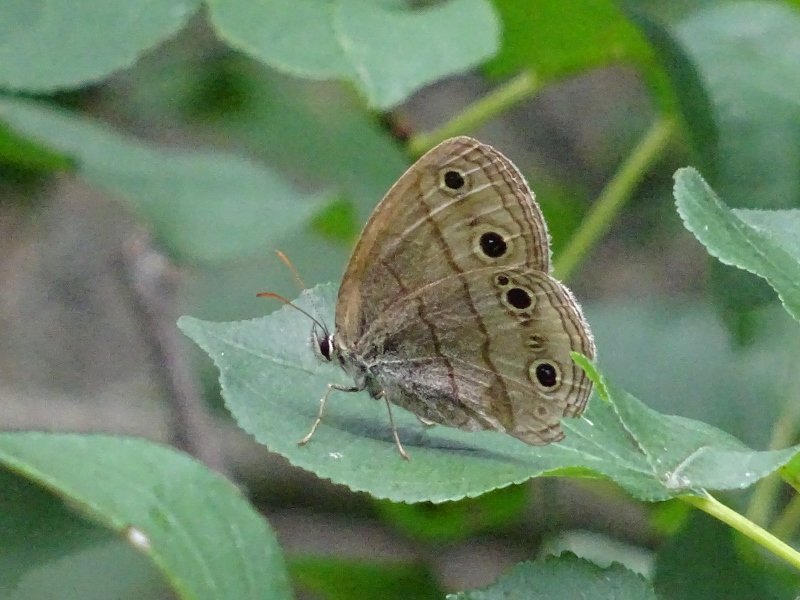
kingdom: Animalia
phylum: Arthropoda
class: Insecta
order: Lepidoptera
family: Nymphalidae
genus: Euptychia
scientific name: Euptychia cymela
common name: Little Wood Satyr
